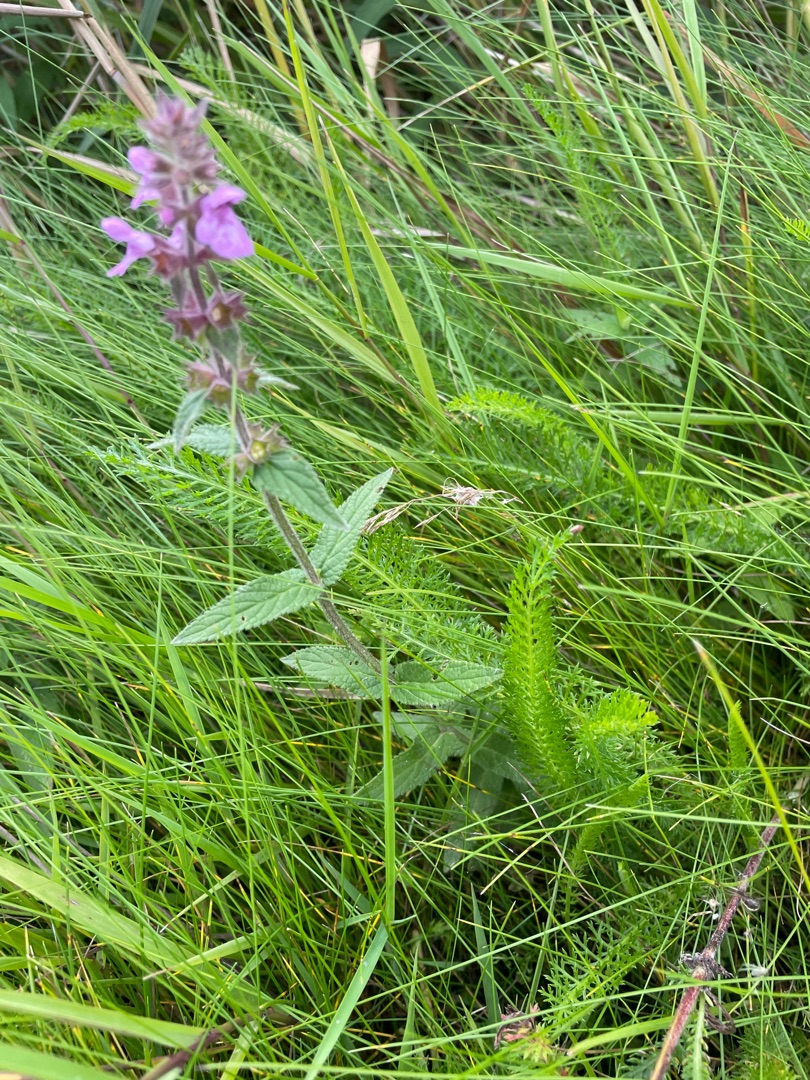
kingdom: Plantae
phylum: Tracheophyta
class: Magnoliopsida
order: Lamiales
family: Lamiaceae
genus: Stachys
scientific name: Stachys palustris
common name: Kær-galtetand
